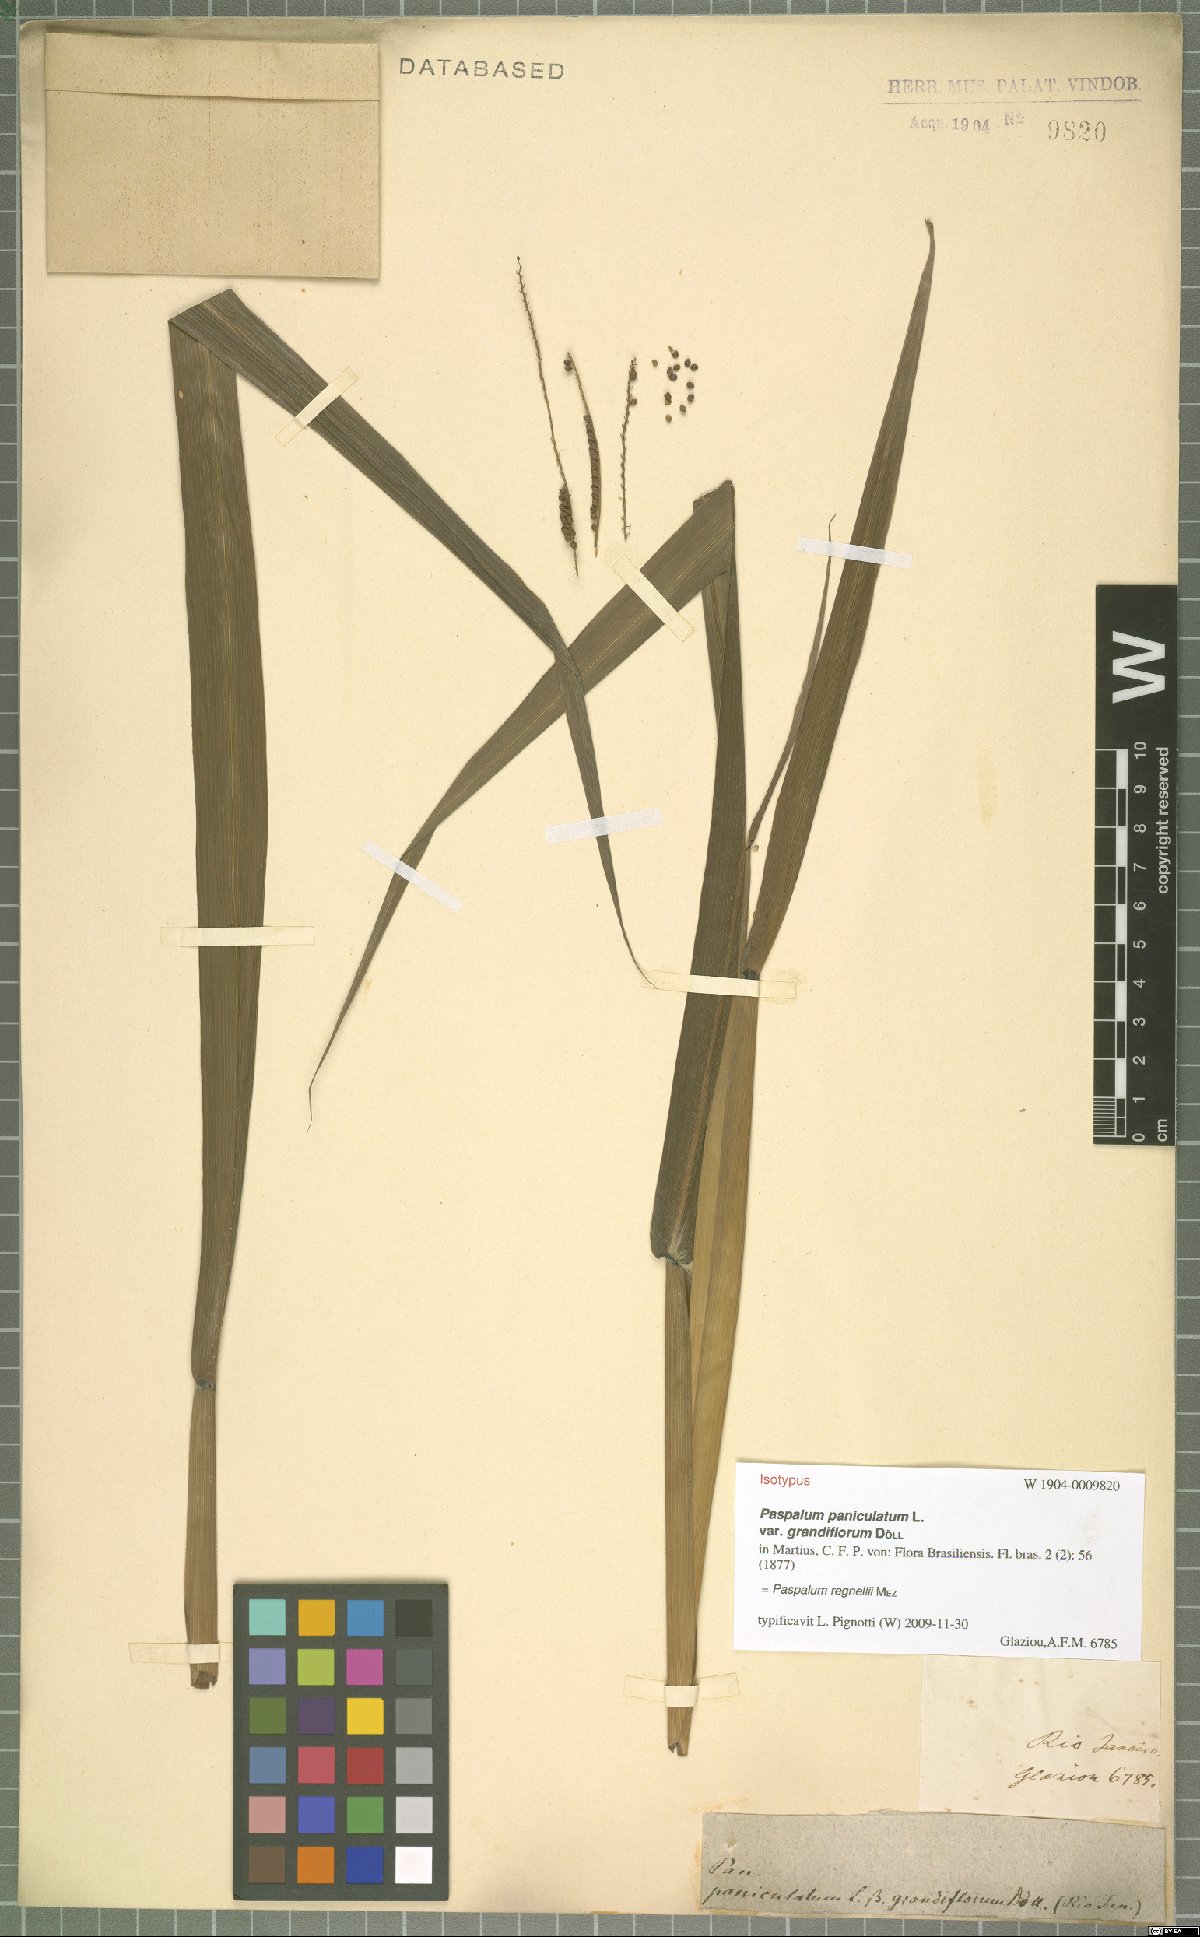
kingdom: Plantae
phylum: Tracheophyta
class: Liliopsida
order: Poales
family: Poaceae
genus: Paspalum
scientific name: Paspalum regnellii
